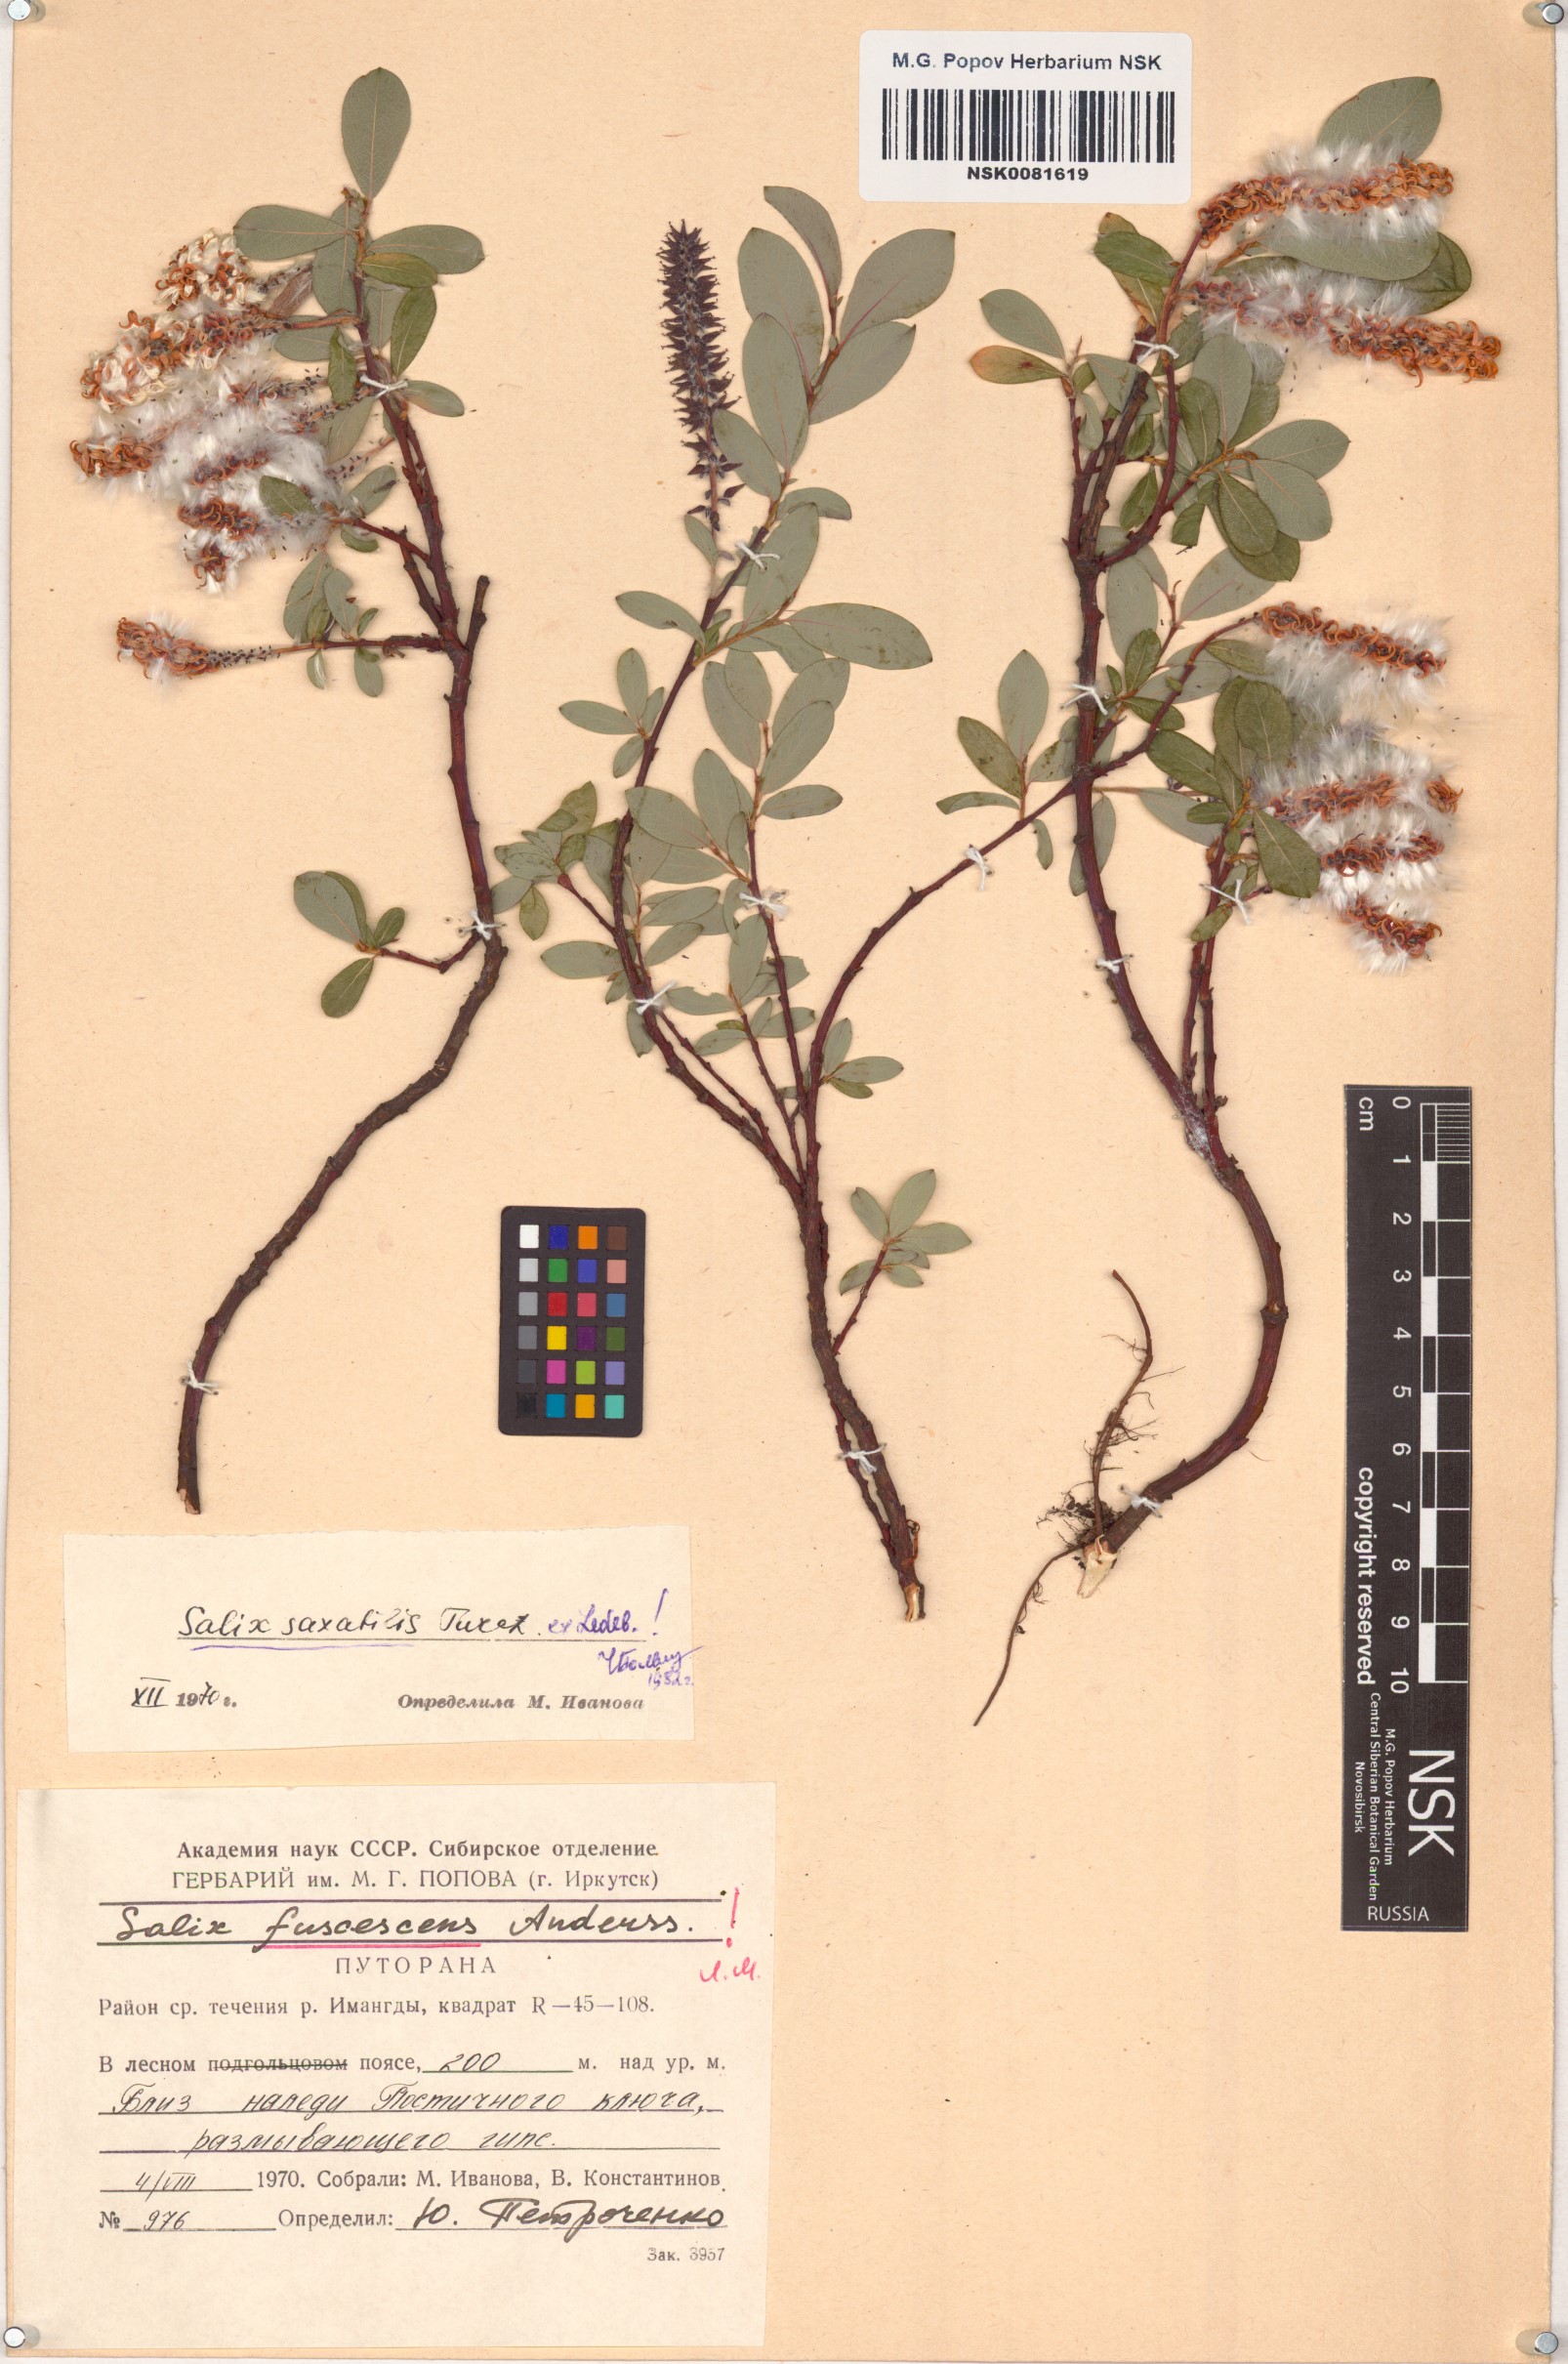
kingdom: Plantae
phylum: Tracheophyta
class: Magnoliopsida
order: Malpighiales
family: Salicaceae
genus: Salix
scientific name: Salix saxatilis
